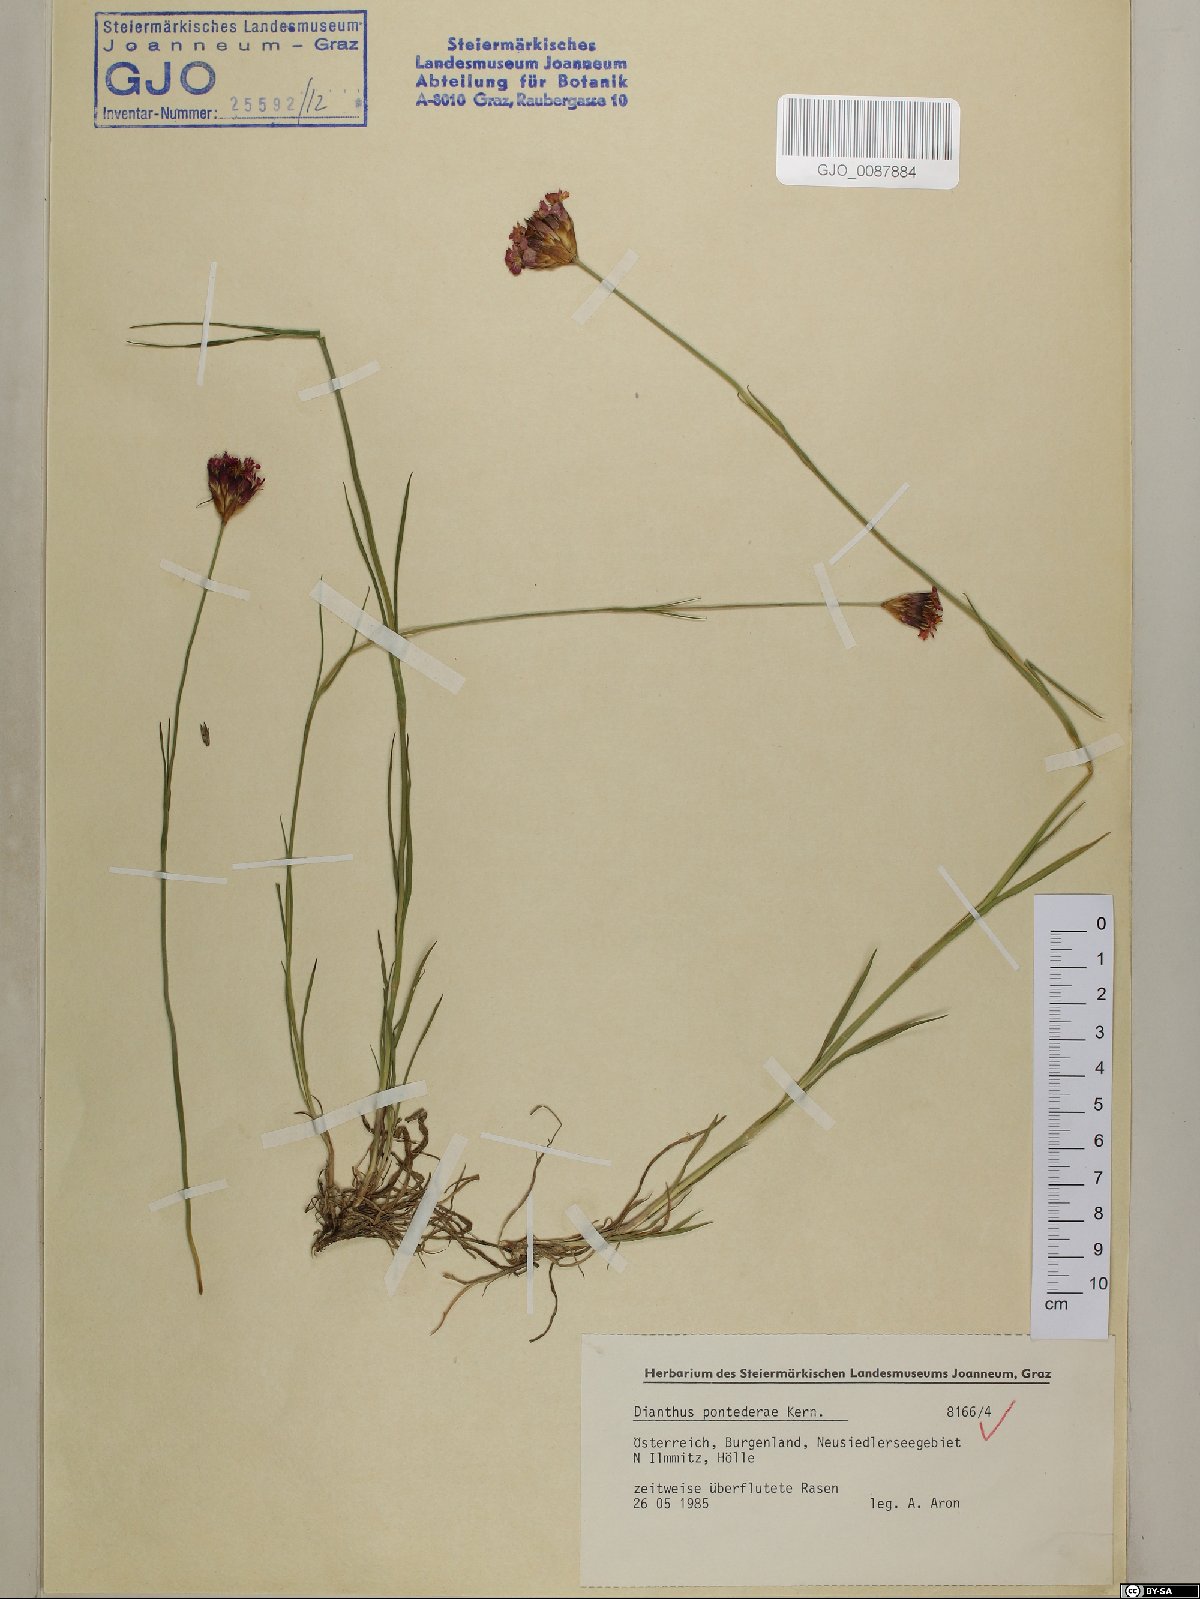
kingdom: Plantae
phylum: Tracheophyta
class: Magnoliopsida
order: Caryophyllales
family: Caryophyllaceae
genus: Dianthus
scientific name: Dianthus pontederae
